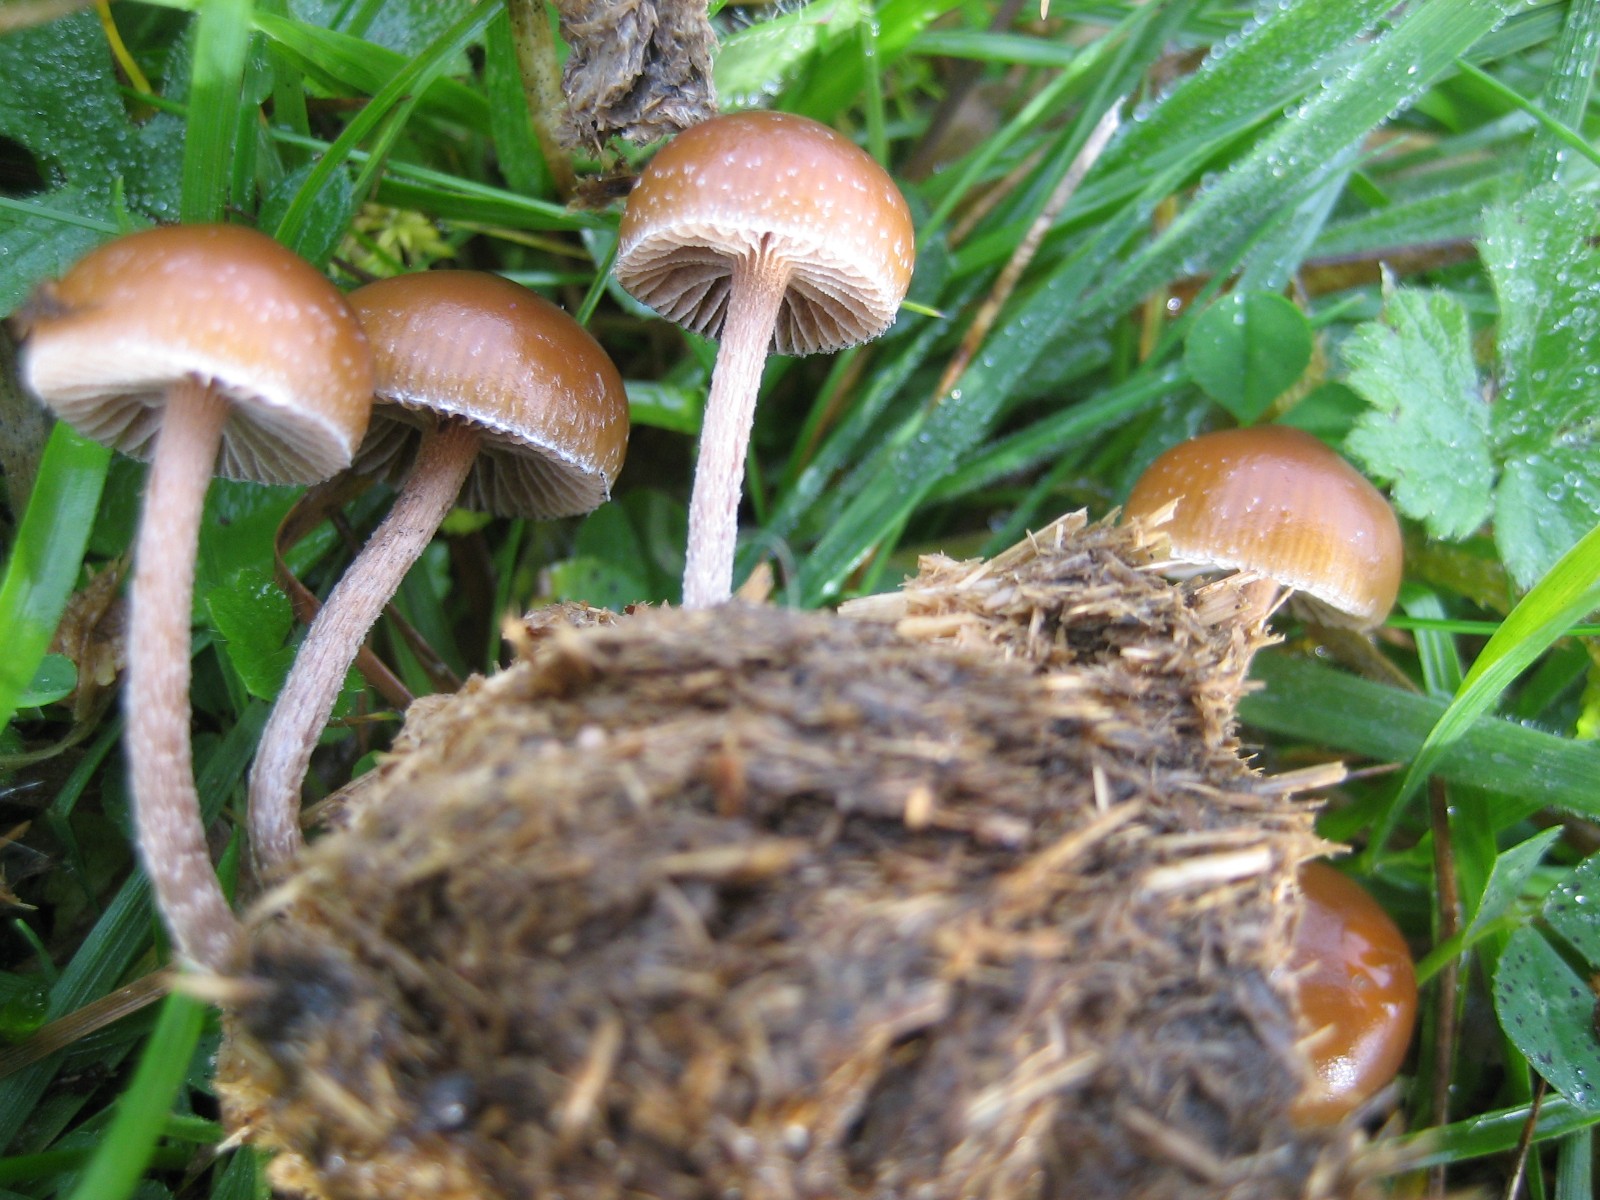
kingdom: Fungi
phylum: Basidiomycota
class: Agaricomycetes
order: Agaricales
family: Strophariaceae
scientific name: Strophariaceae
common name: bredbladfamilien
